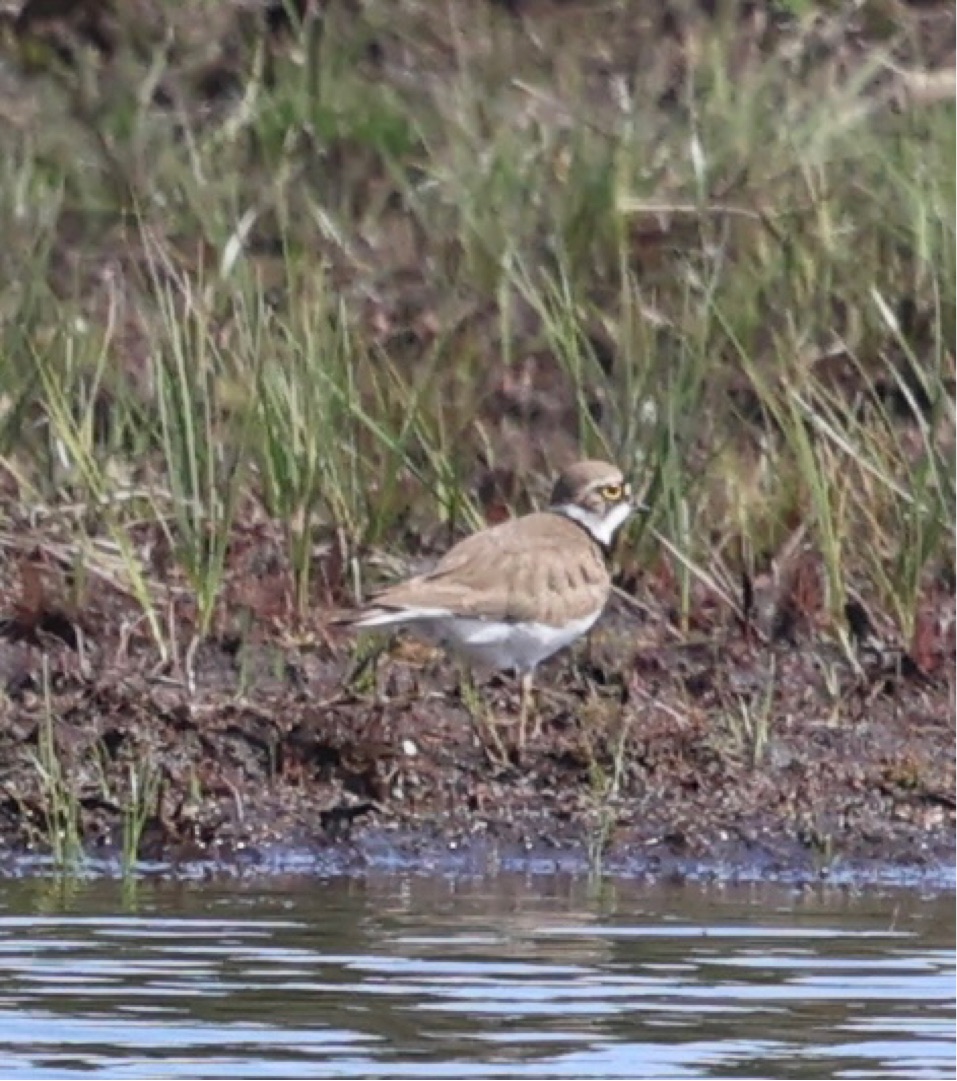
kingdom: Animalia
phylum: Chordata
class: Aves
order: Charadriiformes
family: Charadriidae
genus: Charadrius
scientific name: Charadrius dubius
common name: Lille præstekrave
